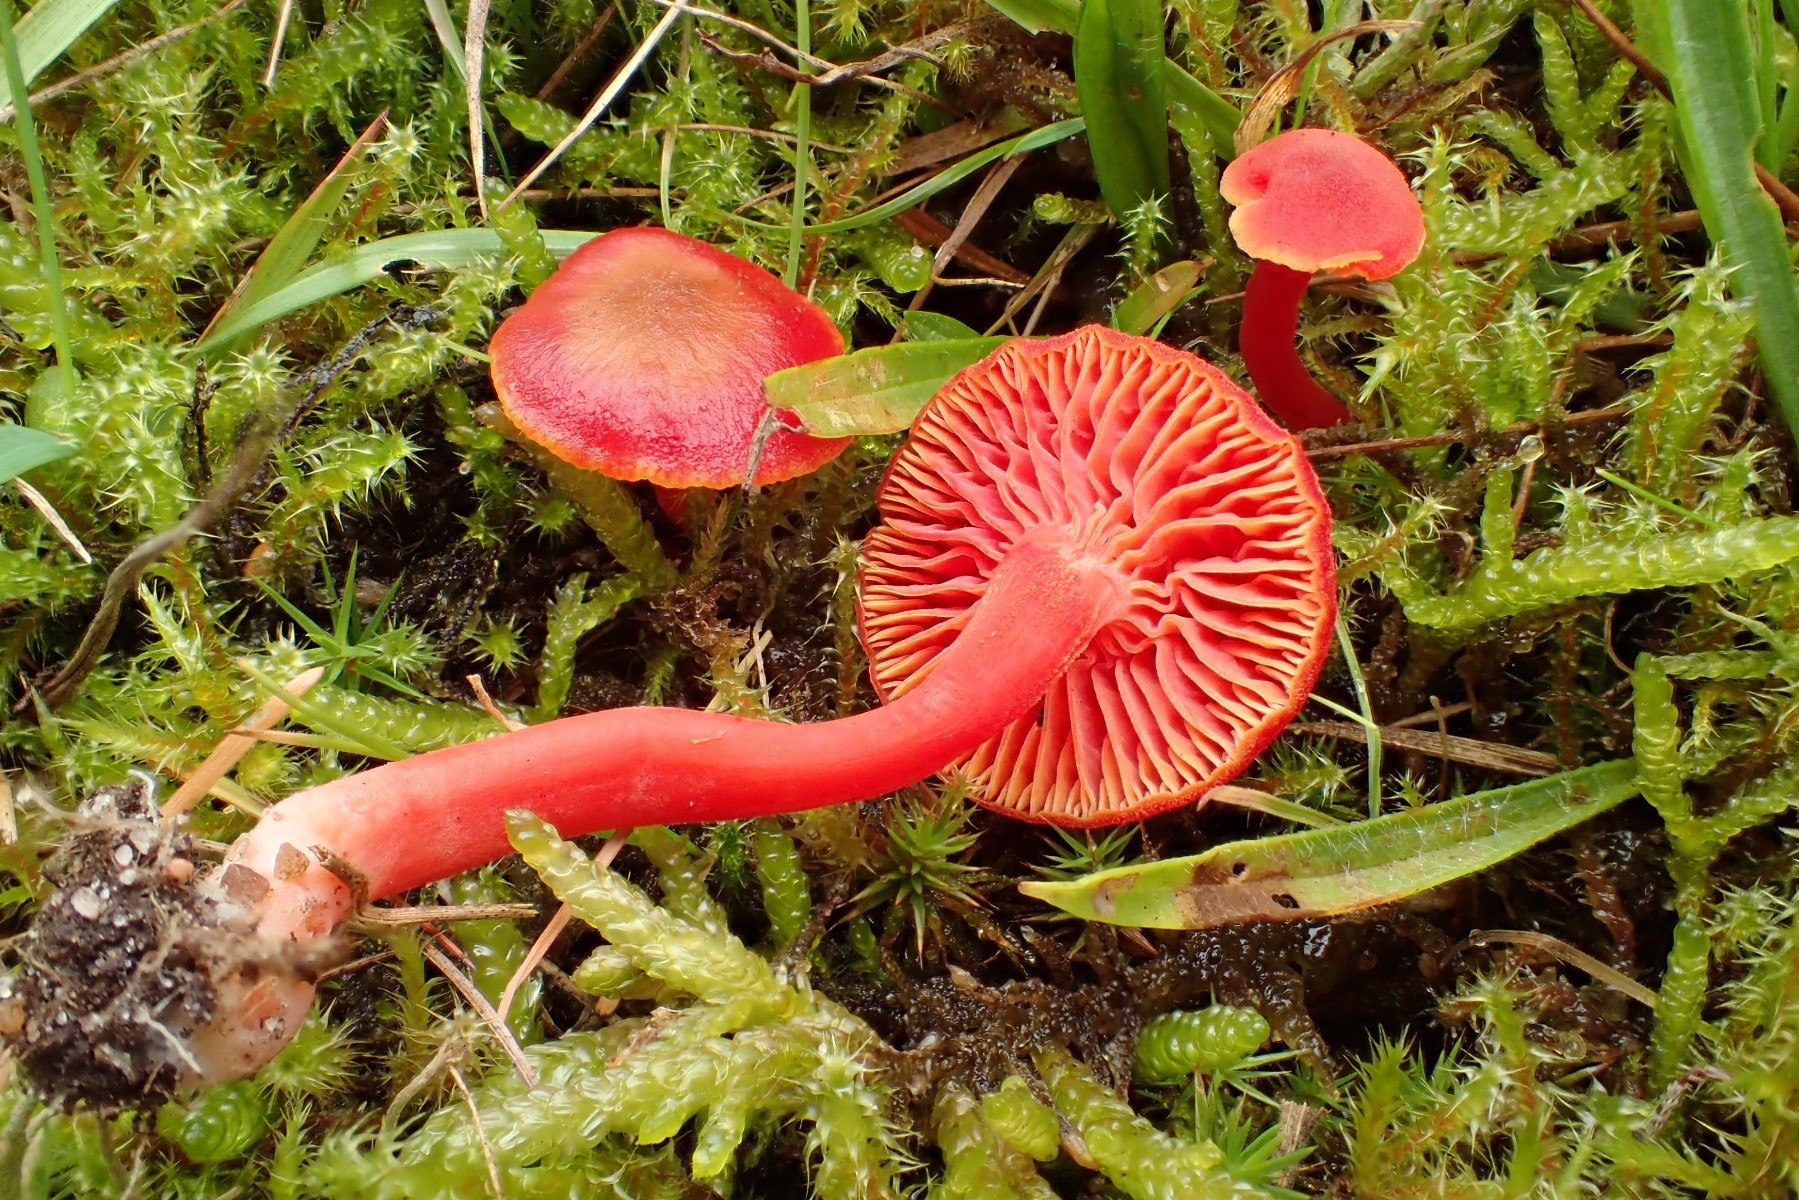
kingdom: Fungi
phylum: Basidiomycota
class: Agaricomycetes
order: Agaricales
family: Hygrophoraceae
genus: Hygrocybe
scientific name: Hygrocybe phaeococcinea
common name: sortdugget vokshat
